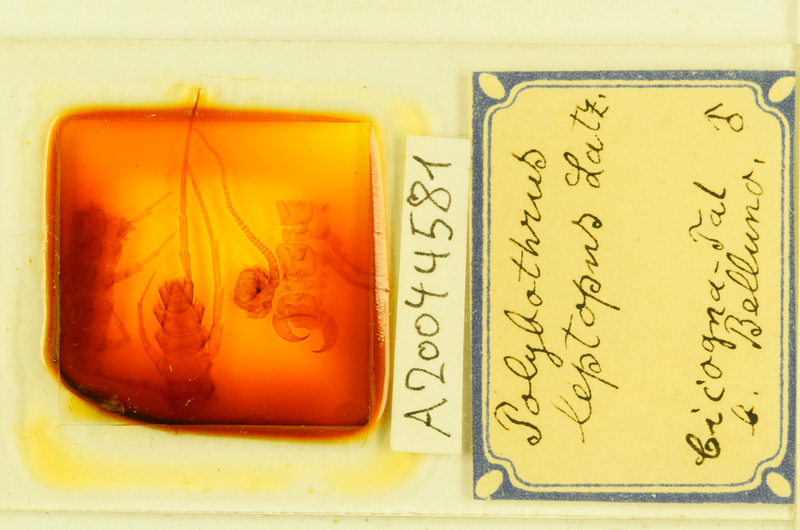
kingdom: Animalia
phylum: Arthropoda
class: Chilopoda
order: Lithobiomorpha
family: Lithobiidae
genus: Polybothrus
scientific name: Polybothrus leptopus
